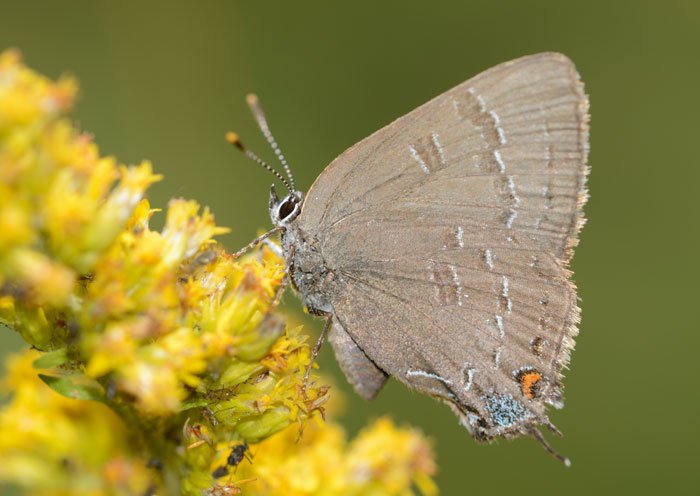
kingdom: Animalia
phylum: Arthropoda
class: Insecta
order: Lepidoptera
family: Lycaenidae
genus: Satyrium
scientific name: Satyrium calanus
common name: Banded Hairstreak
